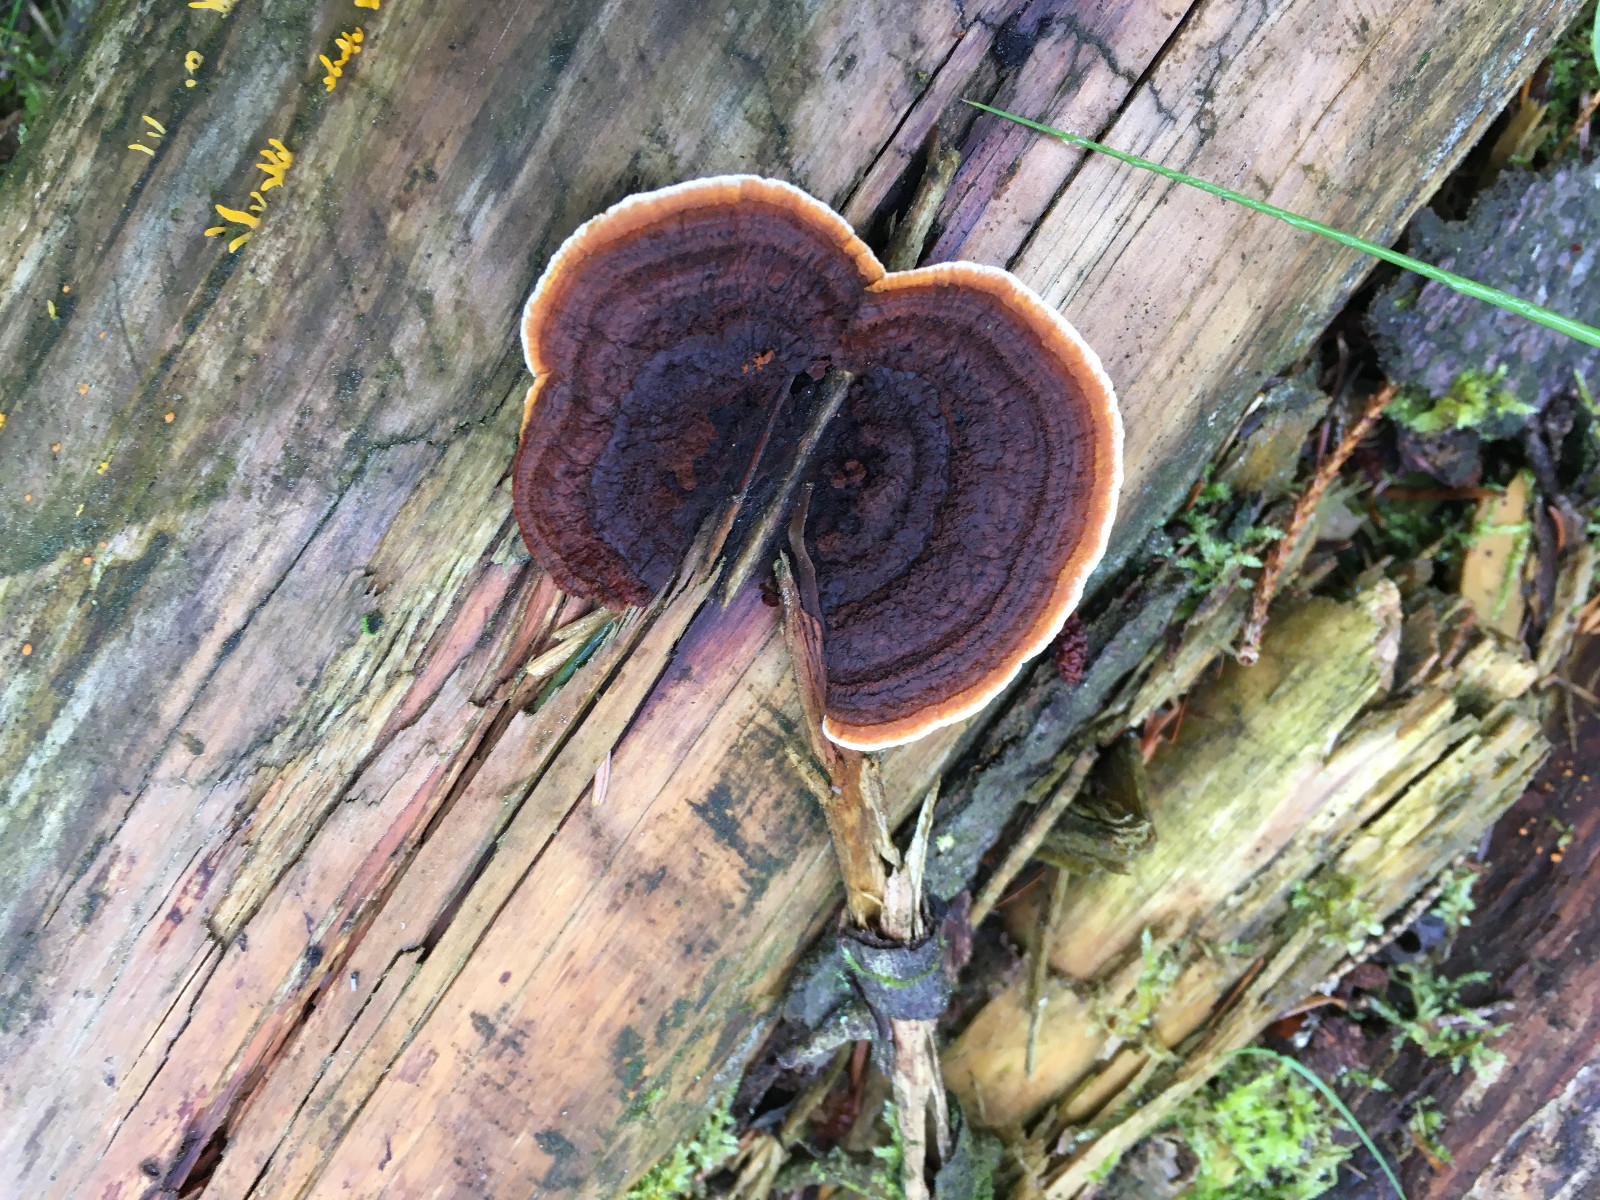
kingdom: Fungi
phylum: Basidiomycota
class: Agaricomycetes
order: Gloeophyllales
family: Gloeophyllaceae
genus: Gloeophyllum
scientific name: Gloeophyllum sepiarium
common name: fyrre-korkhat
